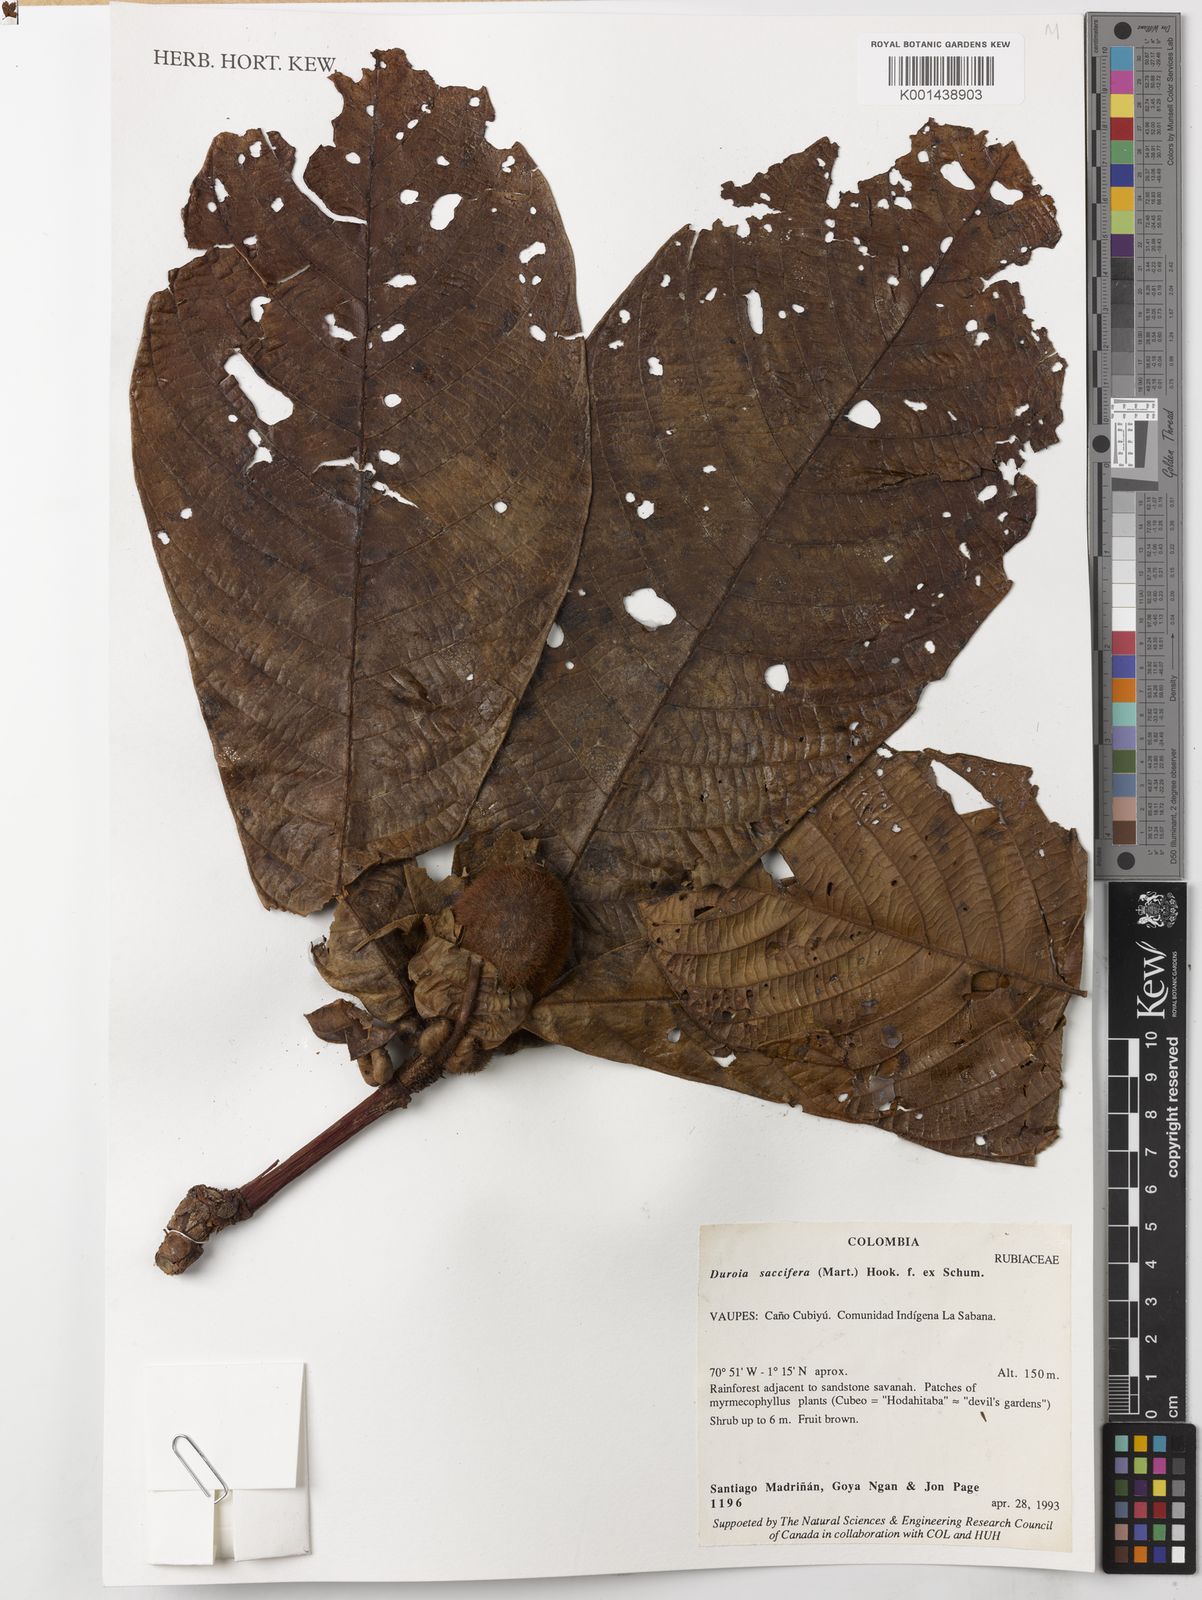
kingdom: Plantae
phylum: Tracheophyta
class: Magnoliopsida
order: Gentianales
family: Rubiaceae
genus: Duroia
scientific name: Duroia saccifera
